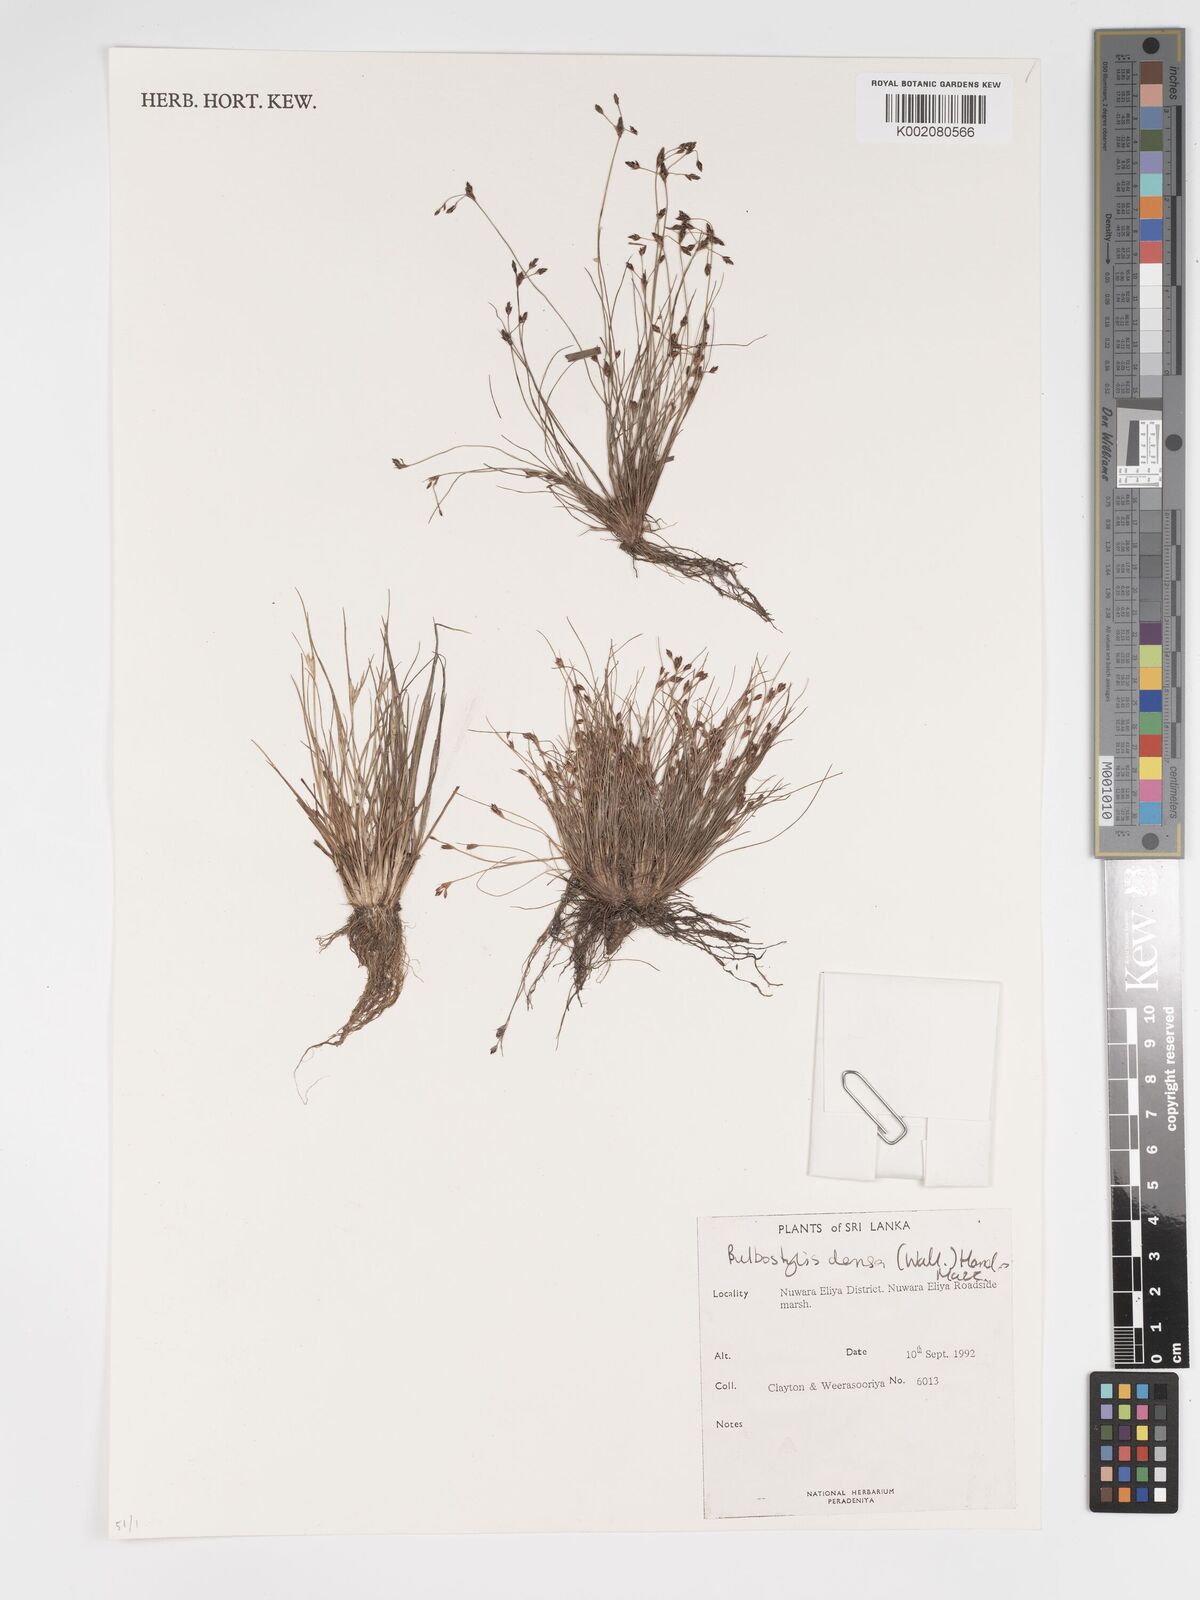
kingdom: Plantae
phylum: Tracheophyta
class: Liliopsida
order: Poales
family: Cyperaceae
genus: Bulbostylis
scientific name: Bulbostylis densa
